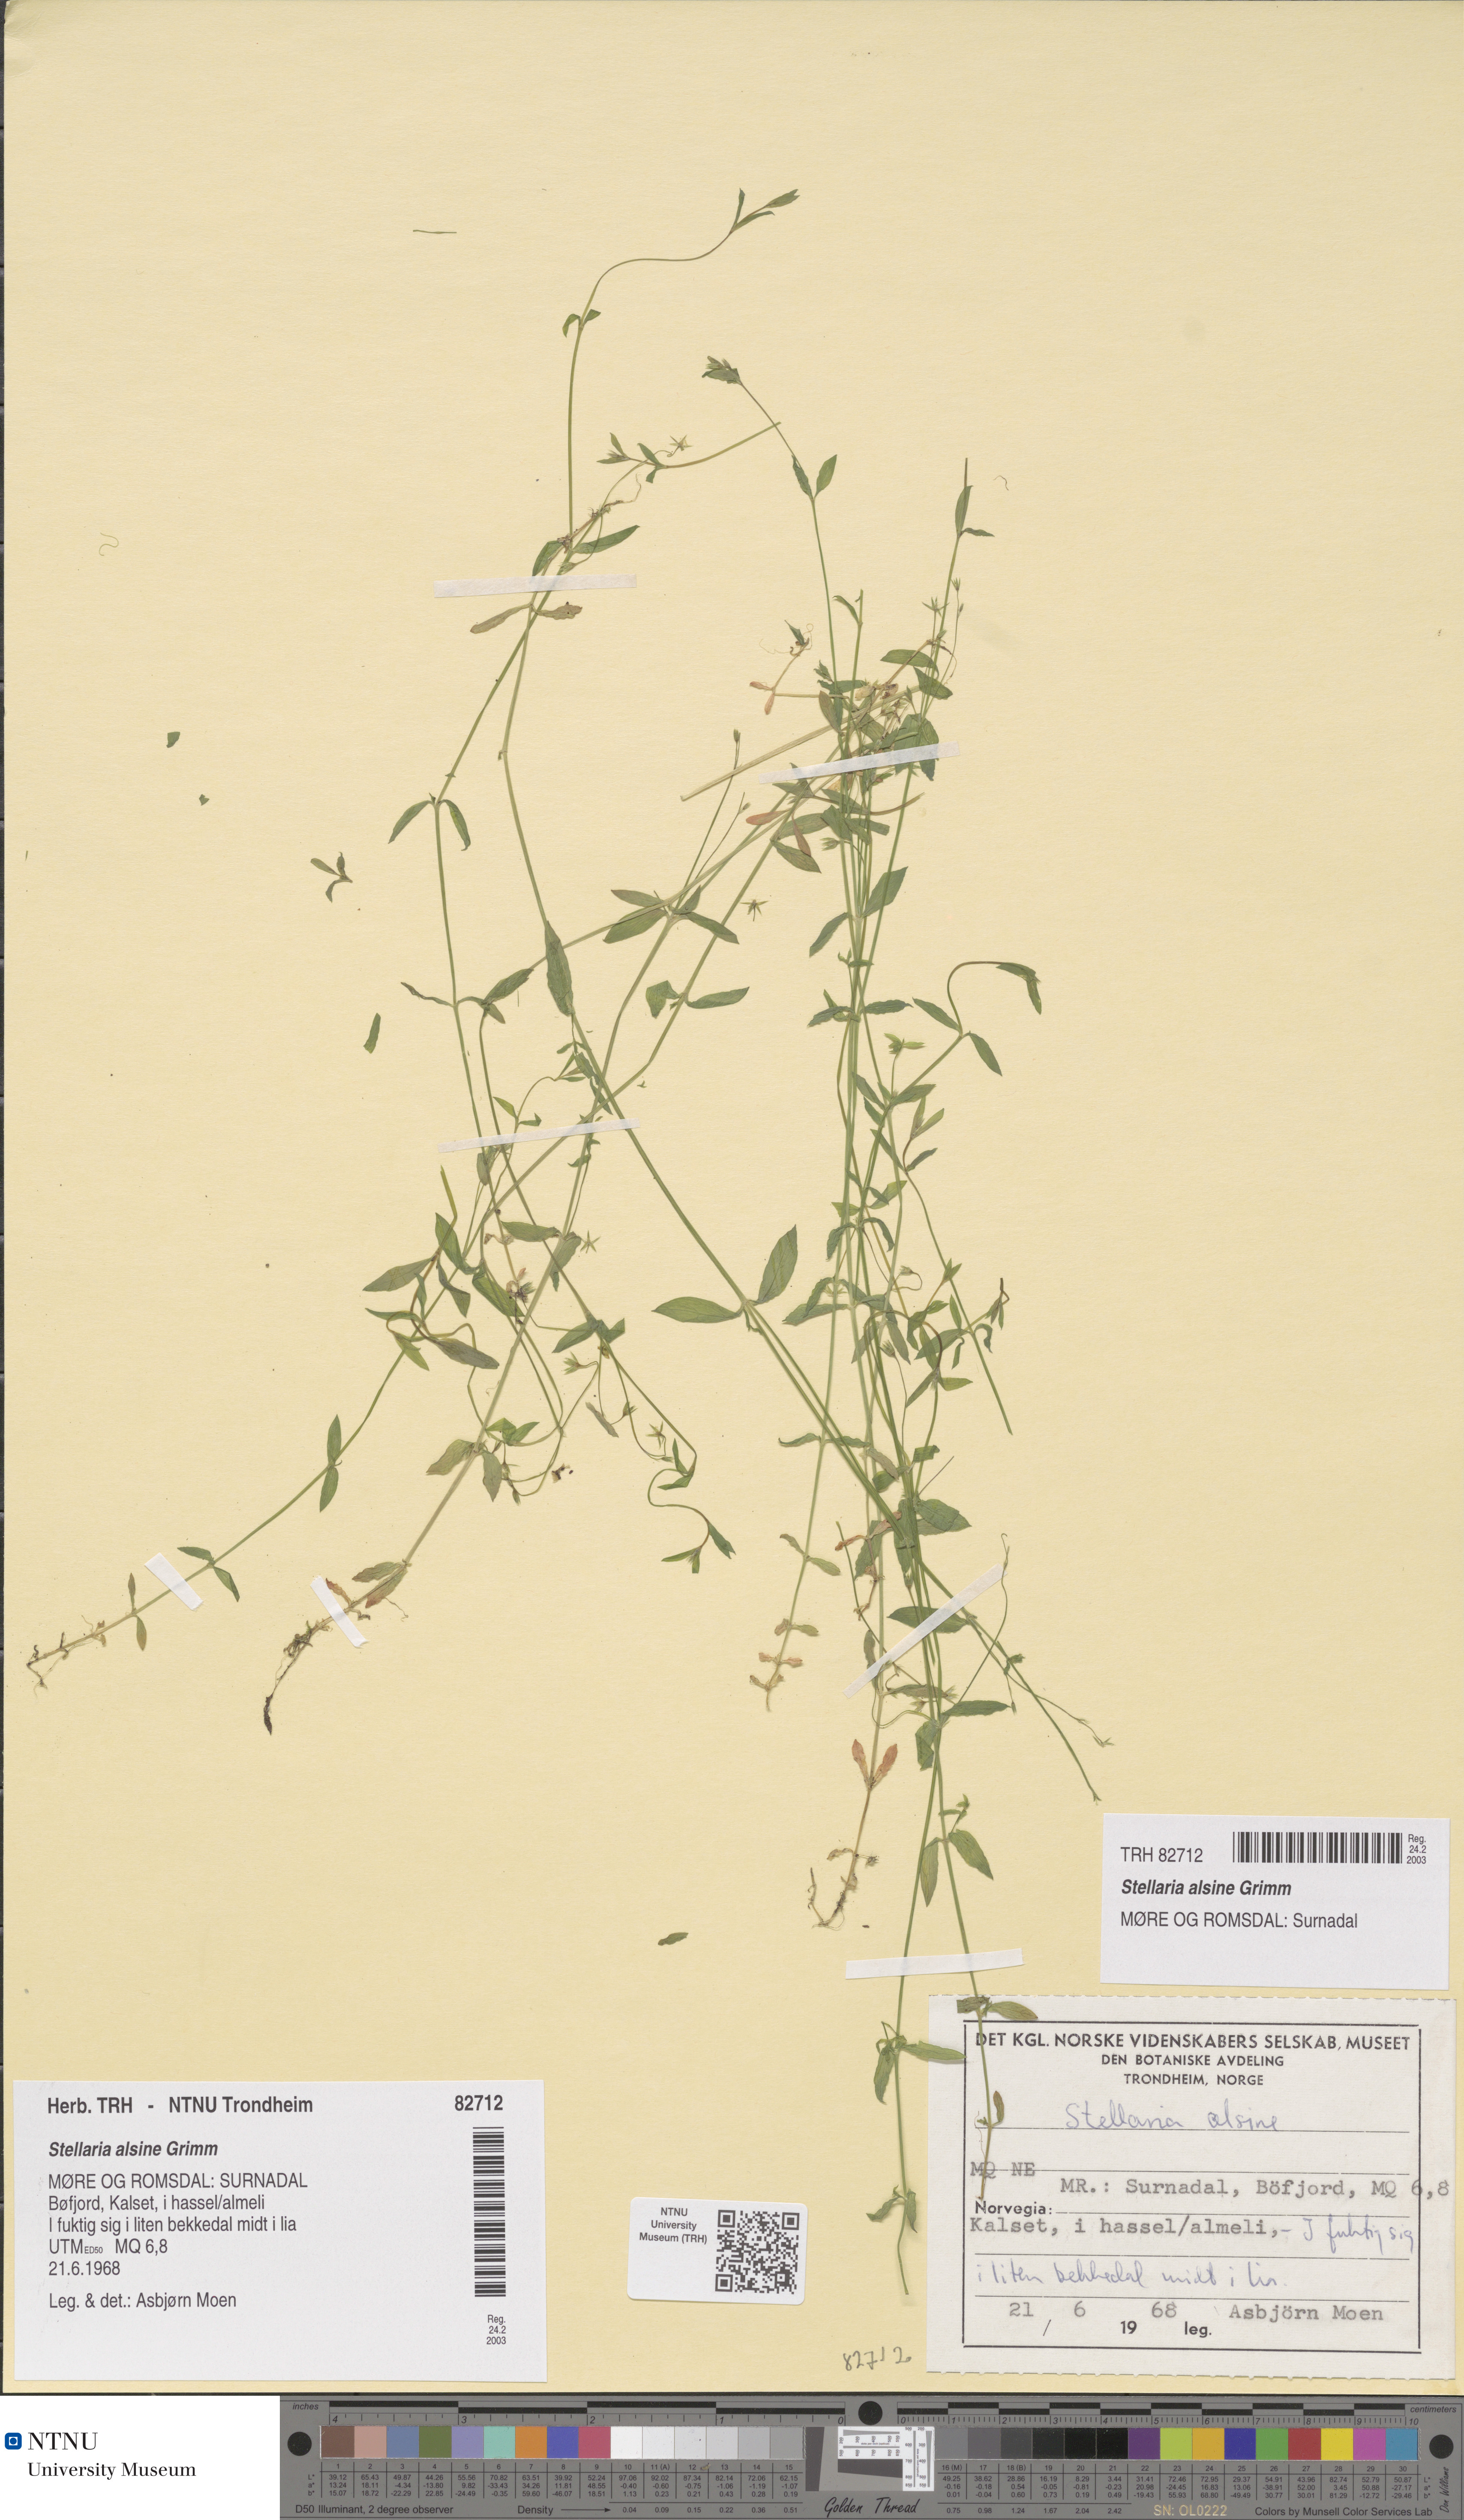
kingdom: Plantae
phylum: Tracheophyta
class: Magnoliopsida
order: Caryophyllales
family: Caryophyllaceae
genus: Stellaria
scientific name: Stellaria alsine
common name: Bog stitchwort
